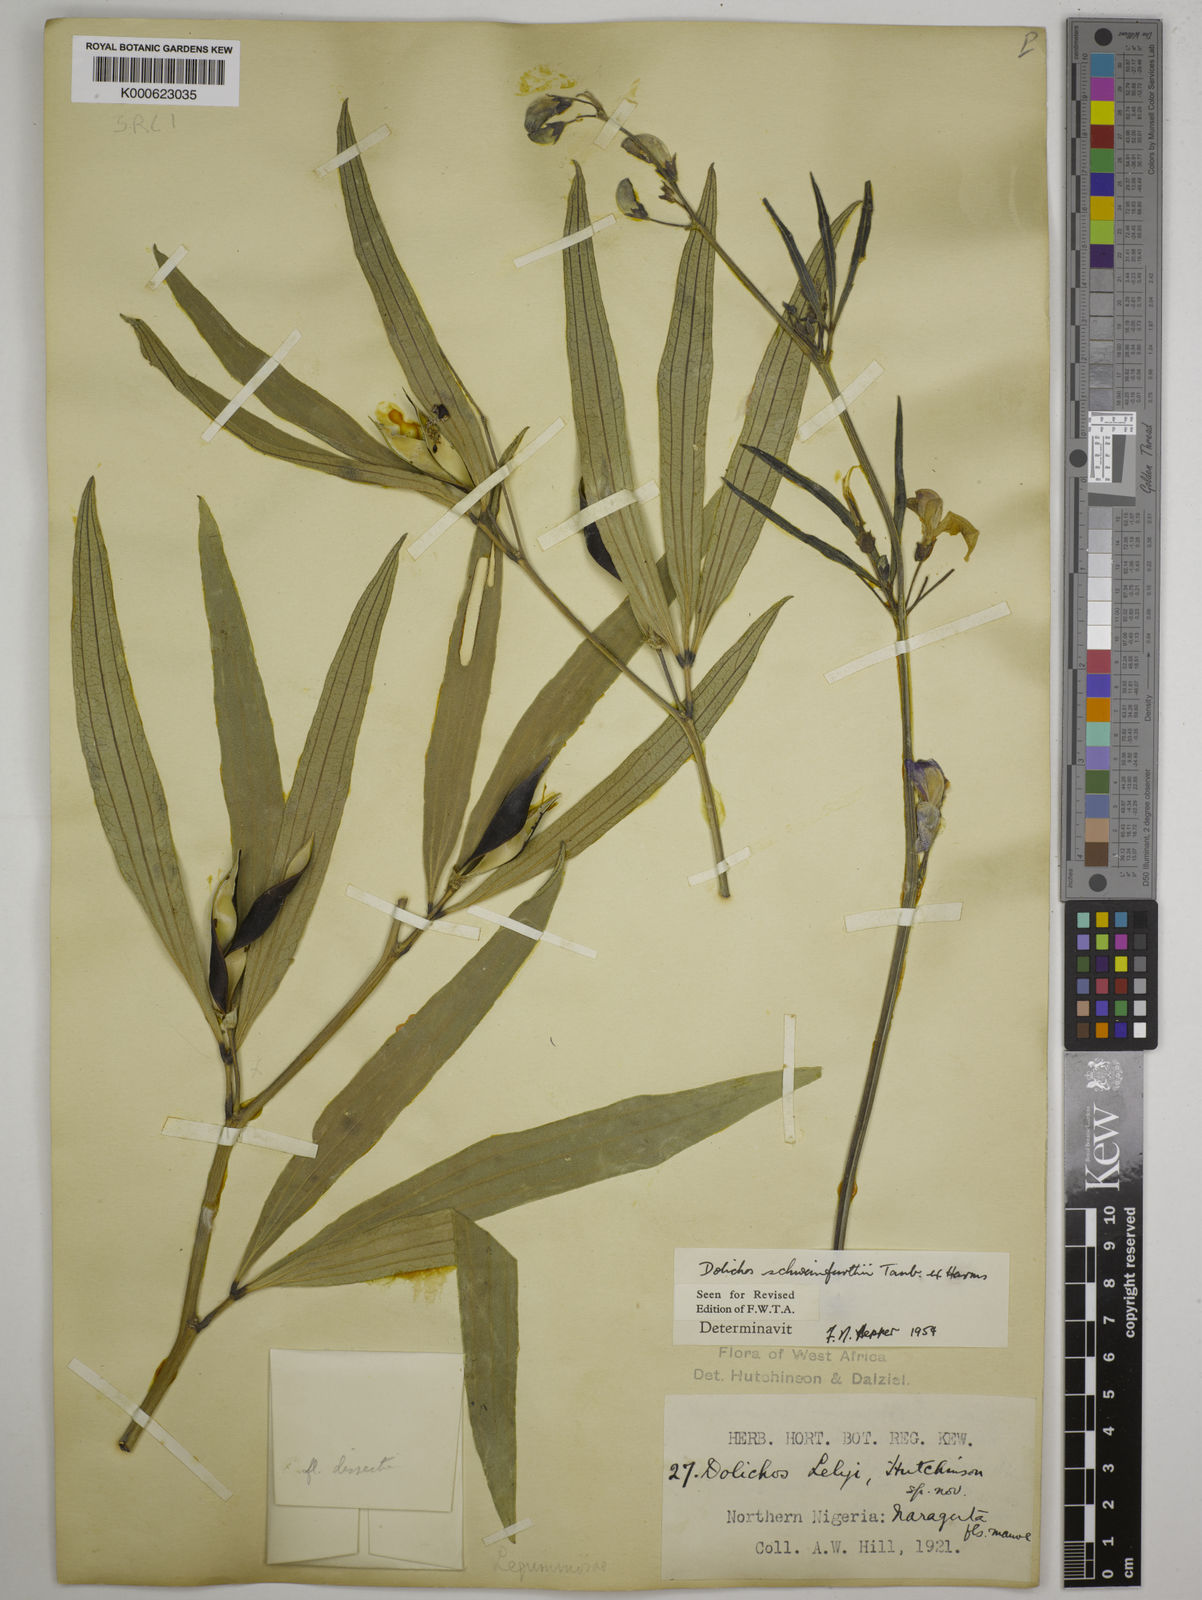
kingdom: Plantae
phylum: Tracheophyta
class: Magnoliopsida
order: Fabales
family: Fabaceae
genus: Dolichos
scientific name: Dolichos
